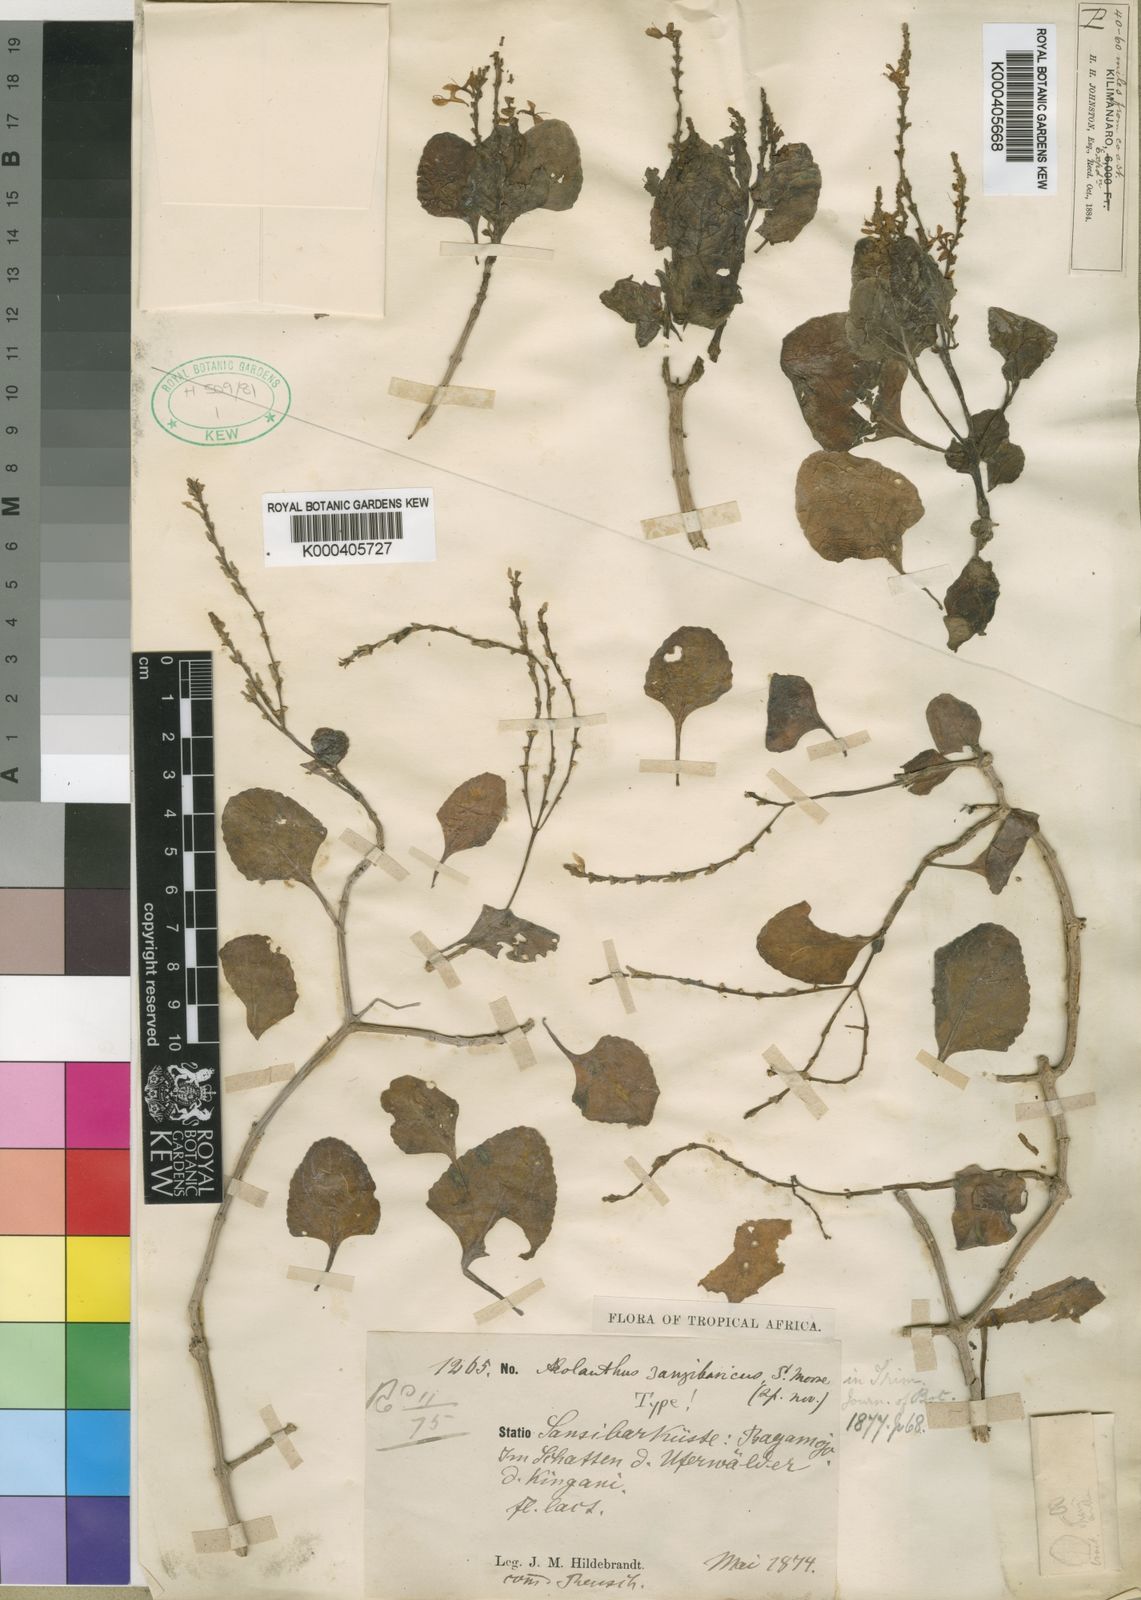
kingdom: Plantae
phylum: Tracheophyta
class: Magnoliopsida
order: Lamiales
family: Lamiaceae
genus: Aeollanthus
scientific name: Aeollanthus zanzibaricus
